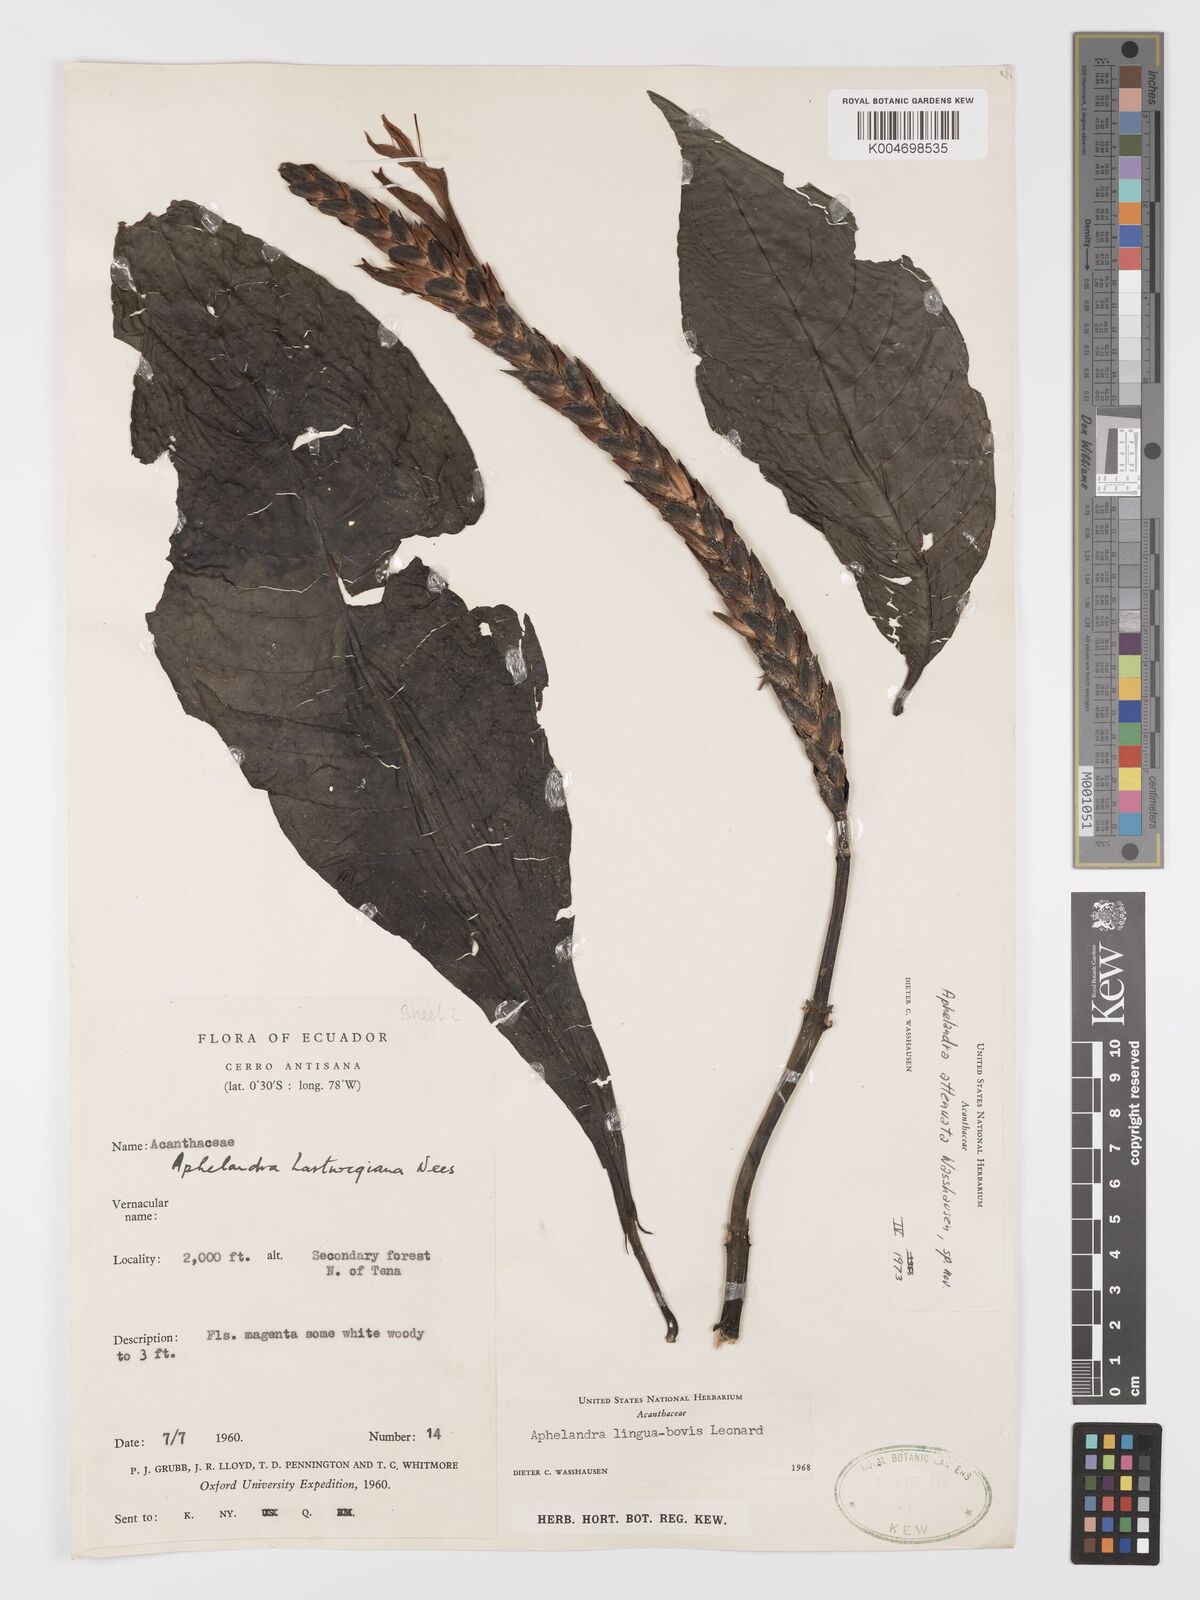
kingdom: Plantae
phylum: Tracheophyta
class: Magnoliopsida
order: Lamiales
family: Acanthaceae
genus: Aphelandra
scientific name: Aphelandra attenuata
